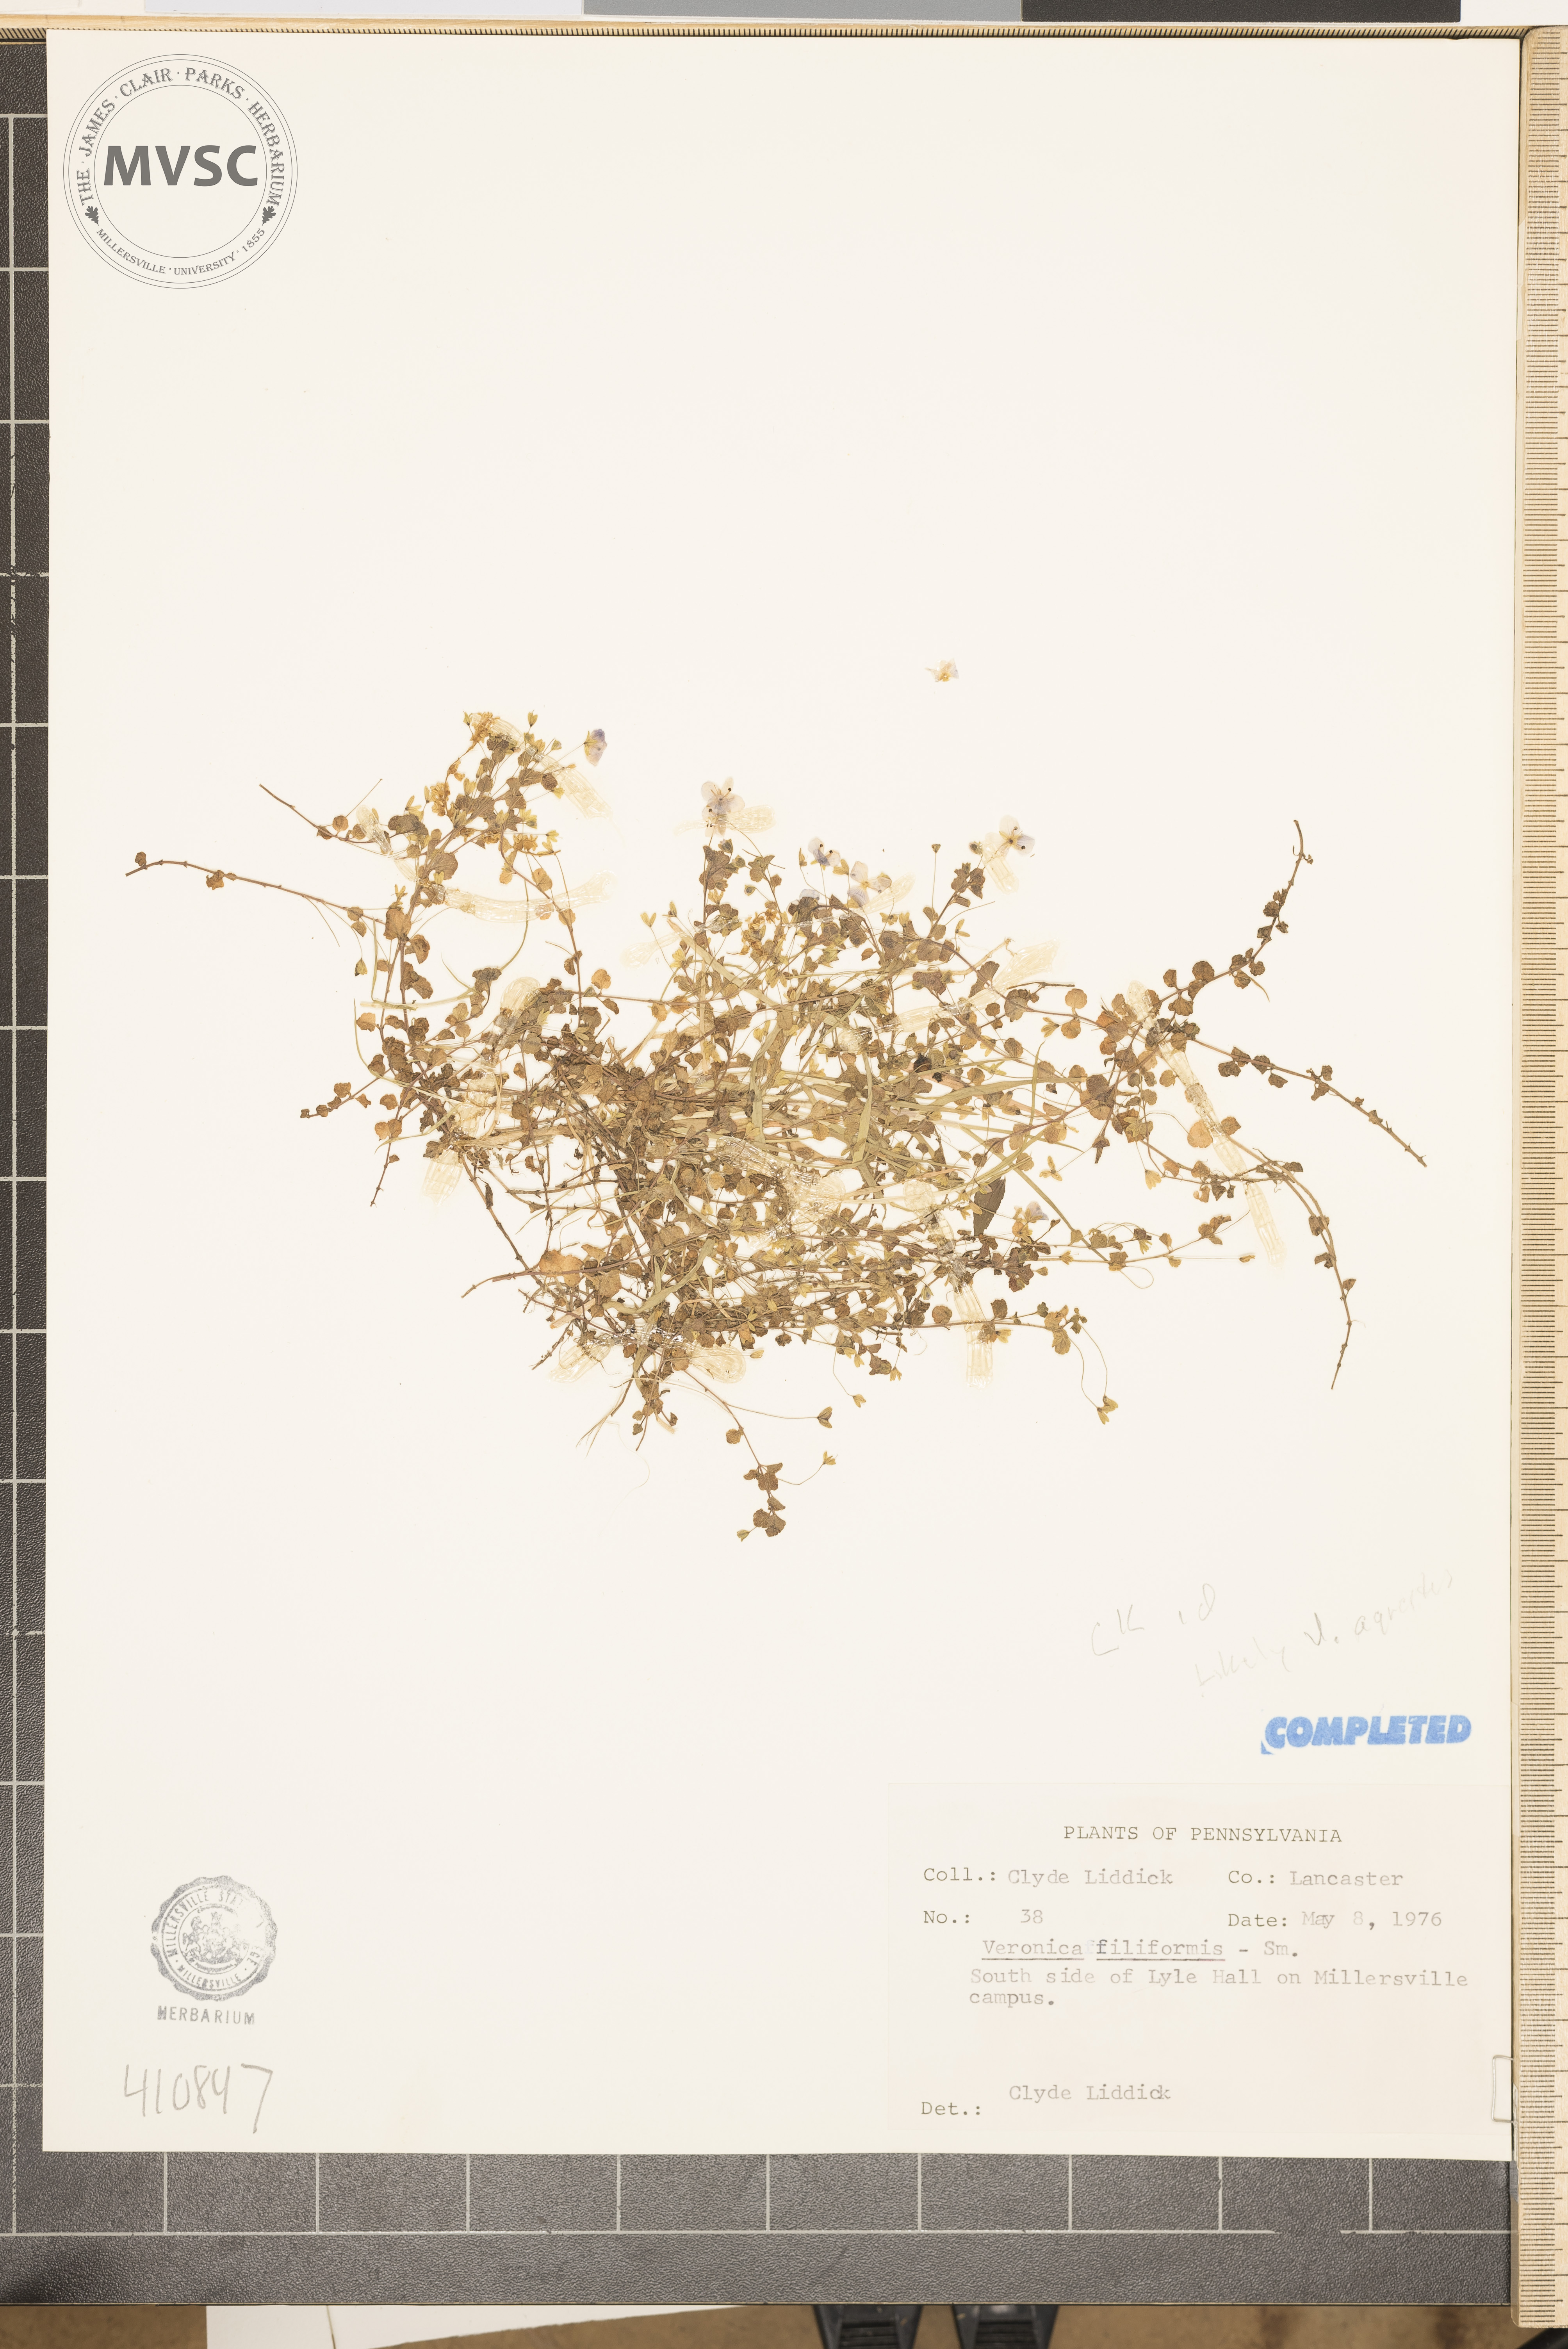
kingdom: Plantae
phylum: Tracheophyta
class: Magnoliopsida
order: Lamiales
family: Plantaginaceae
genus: Veronica
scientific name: Veronica agrestis
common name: Green field-speedwell
